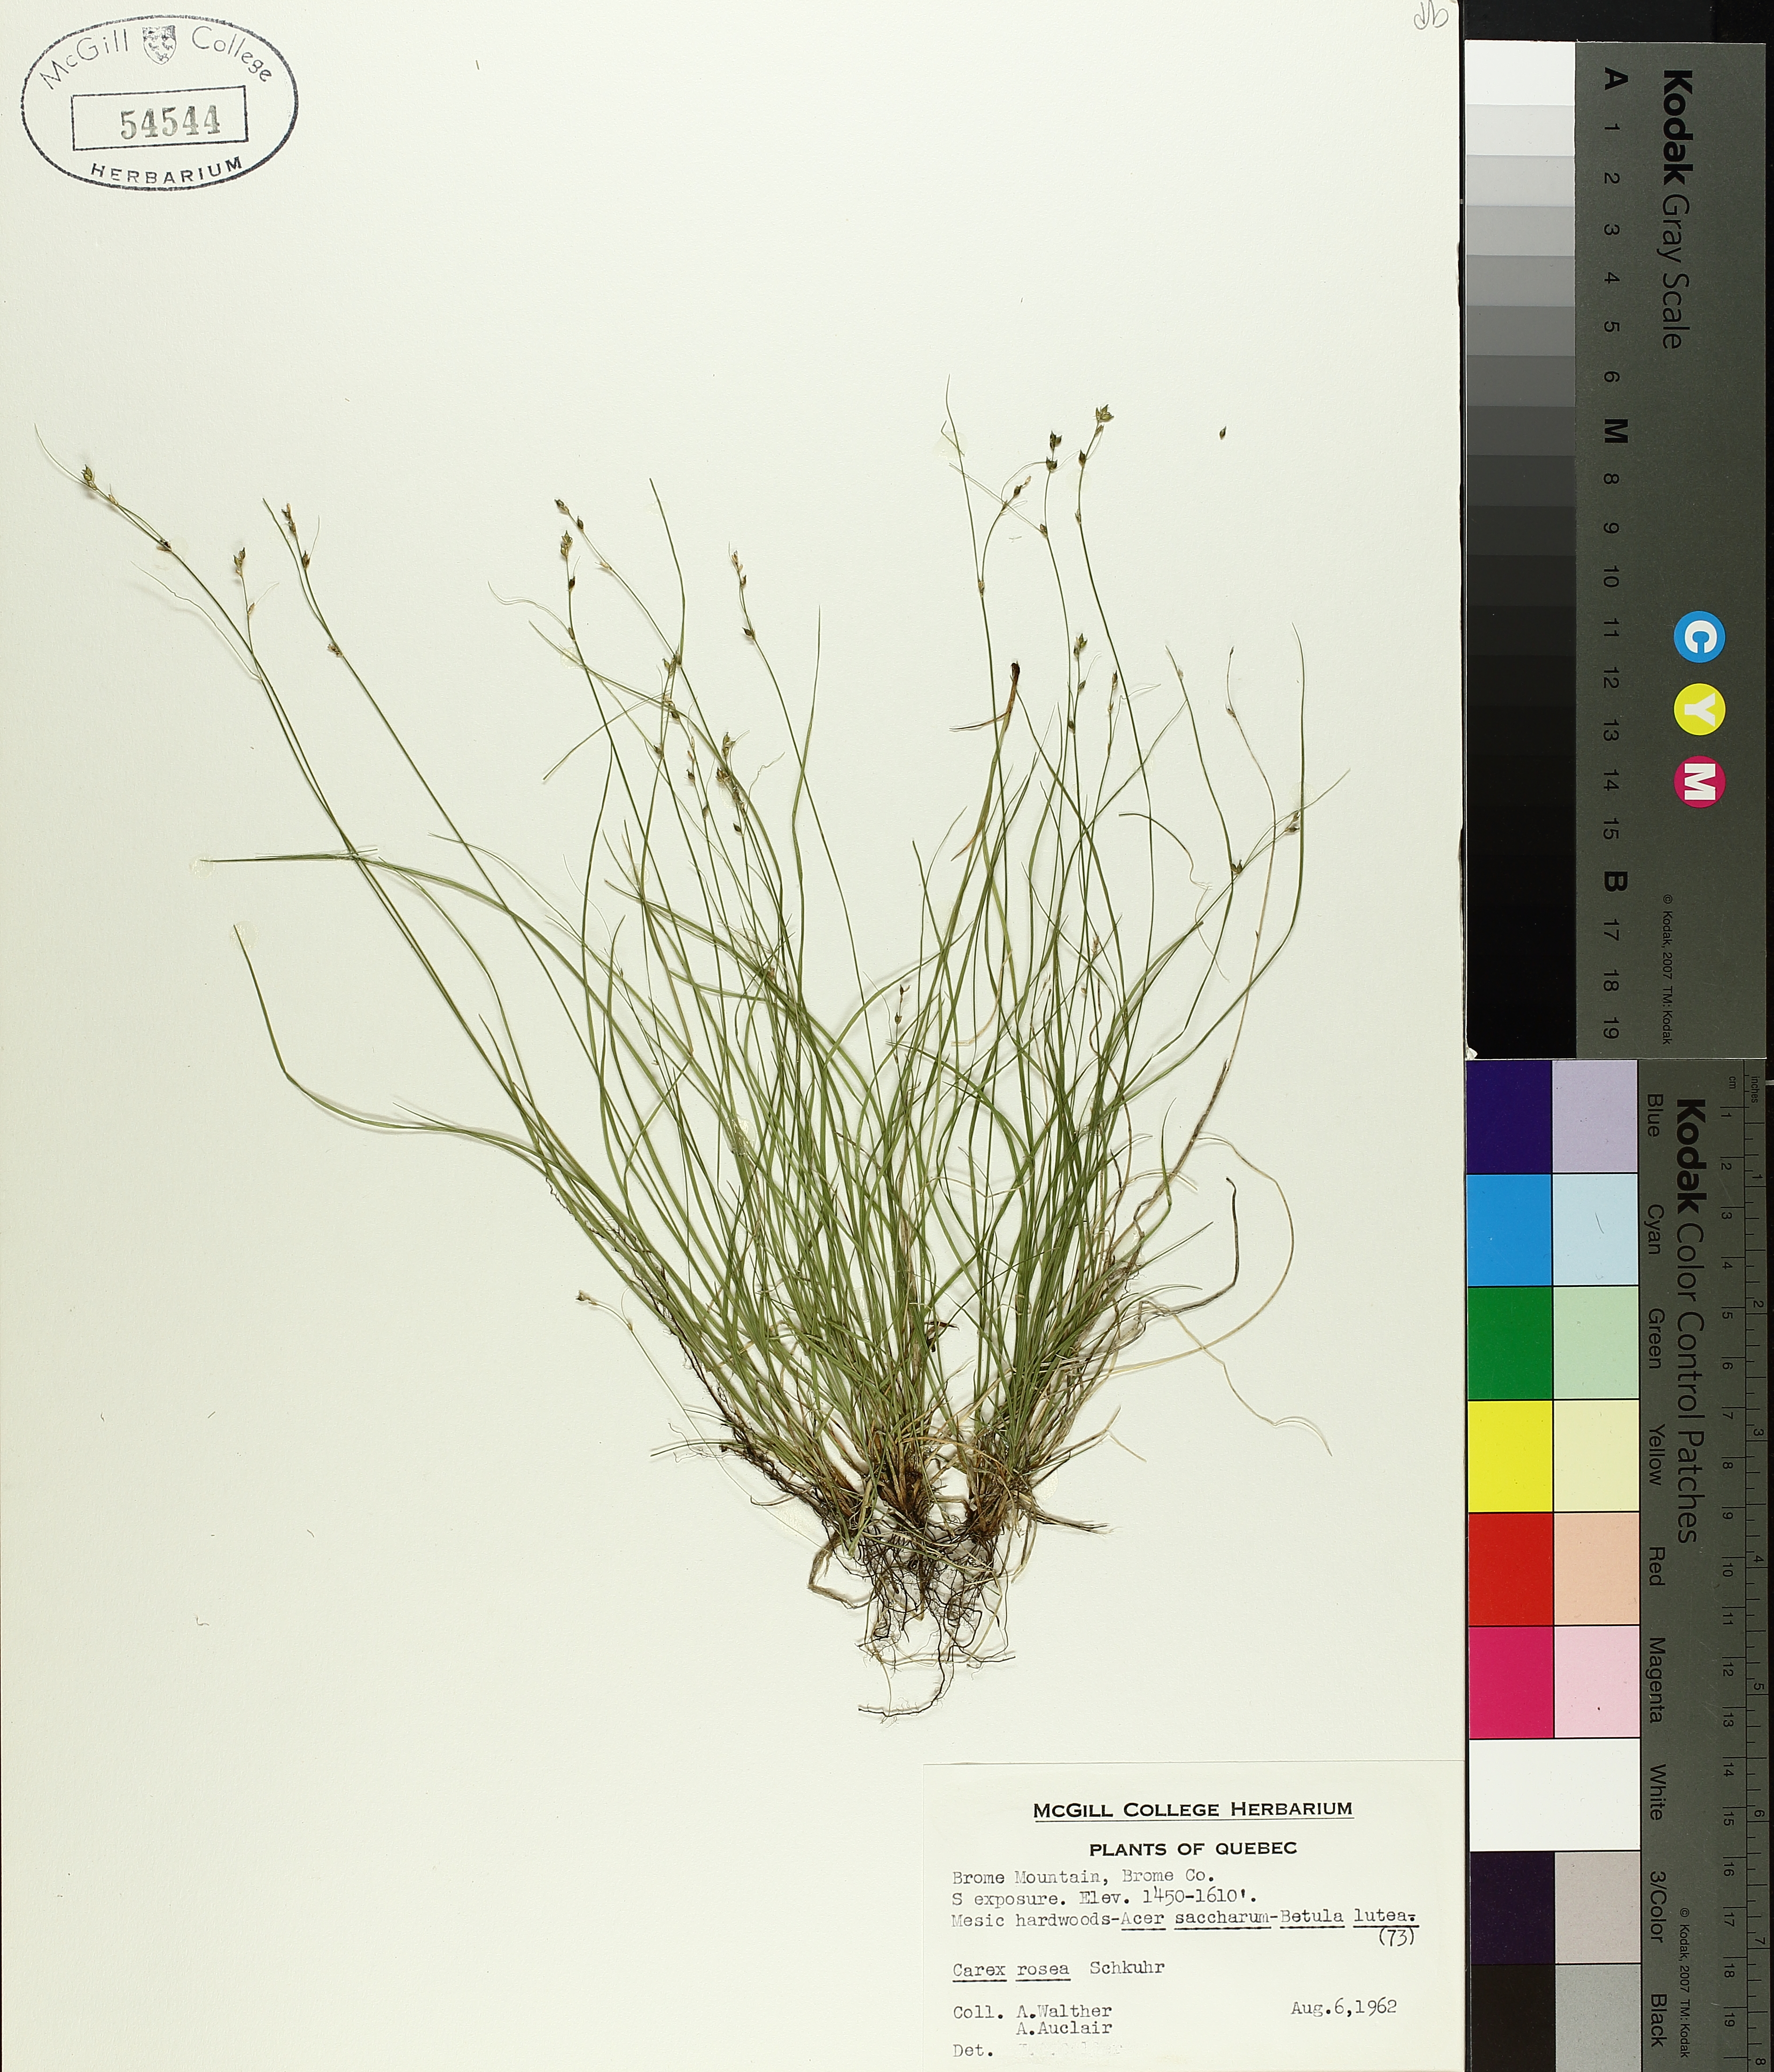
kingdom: Plantae
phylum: Tracheophyta
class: Liliopsida
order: Poales
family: Cyperaceae
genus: Carex
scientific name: Carex rosea
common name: Curly-styled wood sedge
